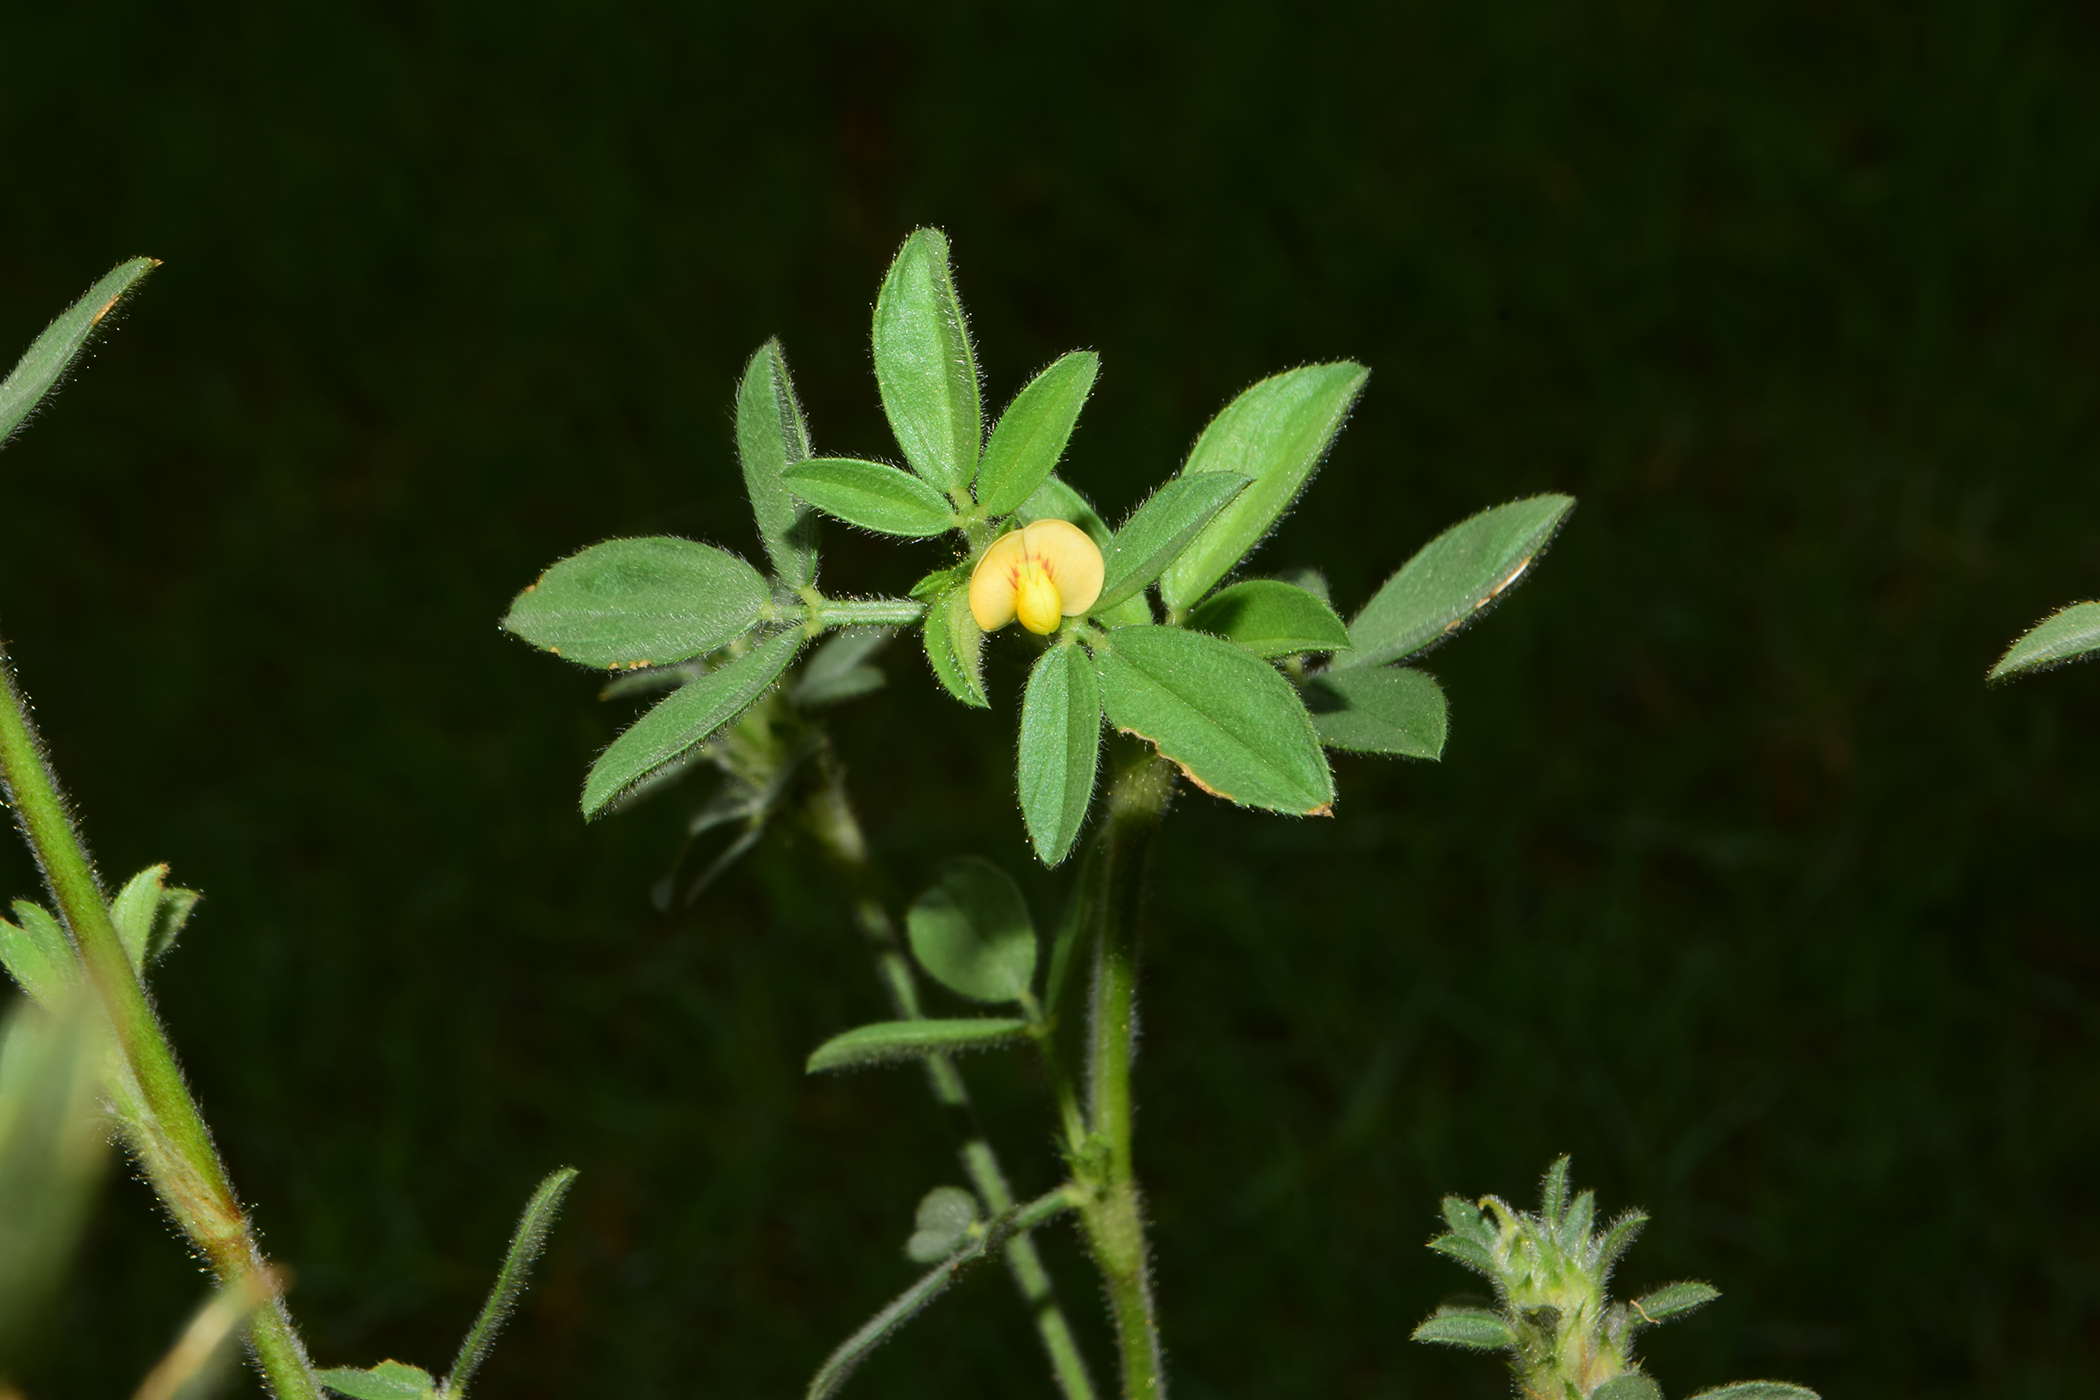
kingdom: Plantae
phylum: Tracheophyta
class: Magnoliopsida
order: Fabales
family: Fabaceae
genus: Stylosanthes
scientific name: Stylosanthes
